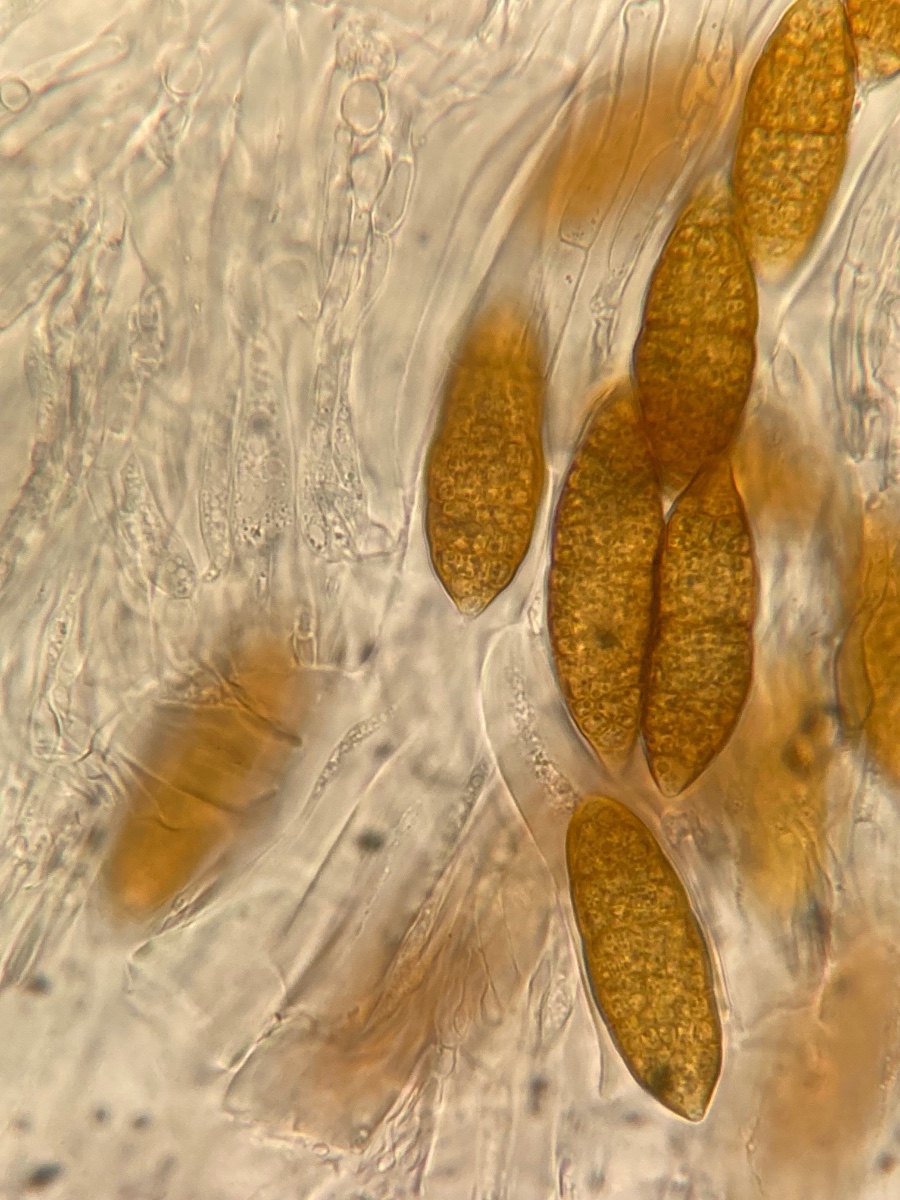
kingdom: Fungi
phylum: Ascomycota
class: Dothideomycetes
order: Pleosporales
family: Fenestellaceae
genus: Fenestella
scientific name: Fenestella media
